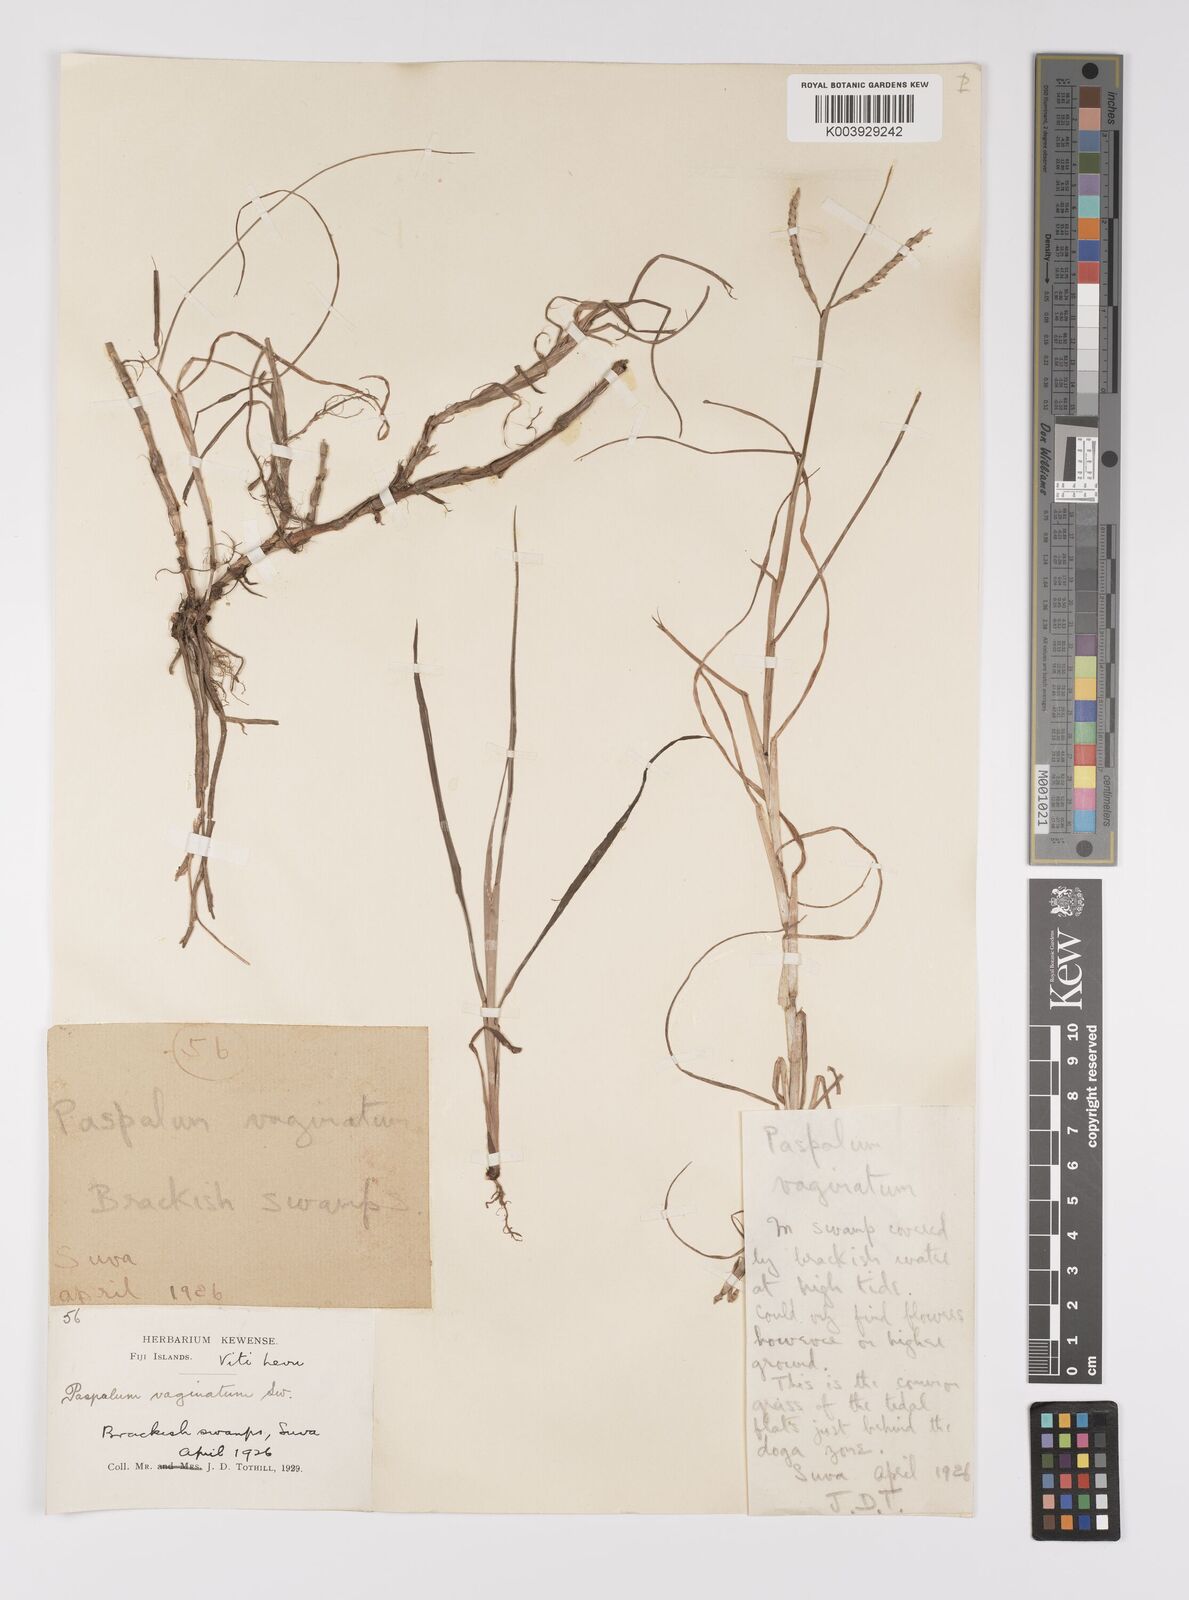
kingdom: Plantae
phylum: Tracheophyta
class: Liliopsida
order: Poales
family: Poaceae
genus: Paspalum
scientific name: Paspalum vaginatum
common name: Seashore paspalum
